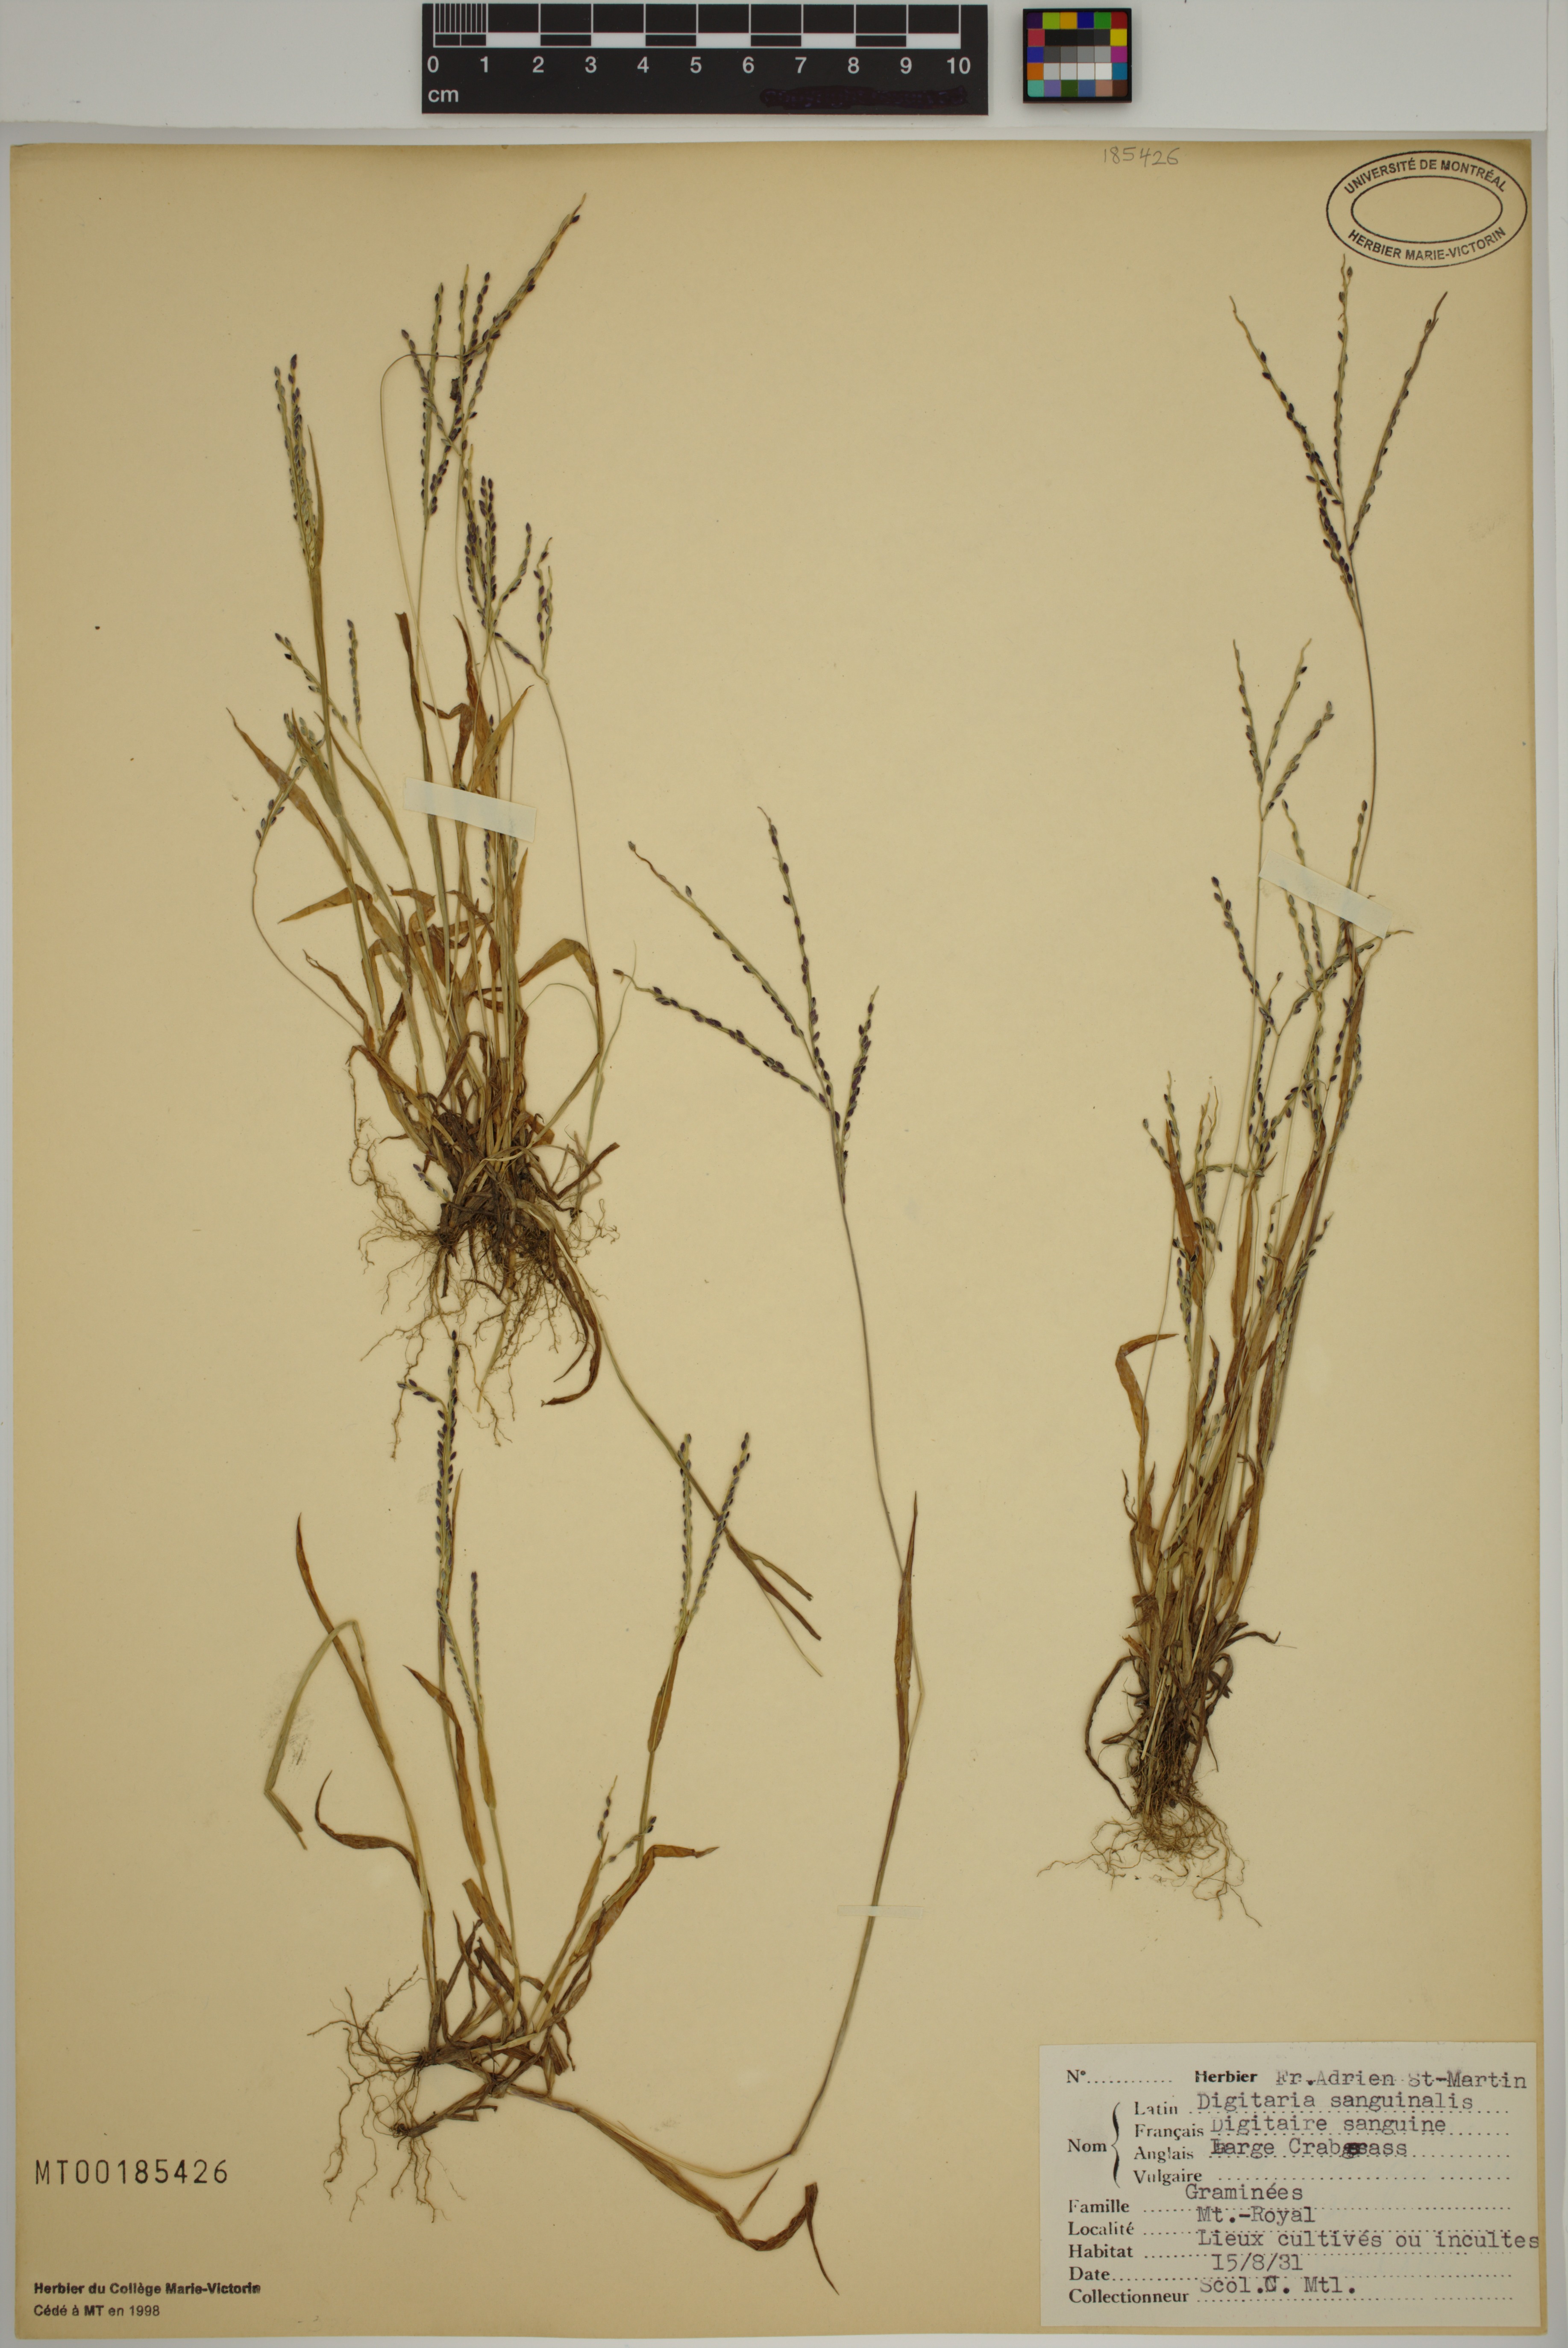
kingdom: Plantae
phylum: Tracheophyta
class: Liliopsida
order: Poales
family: Poaceae
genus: Digitaria
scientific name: Digitaria sanguinalis
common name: Hairy crabgrass
